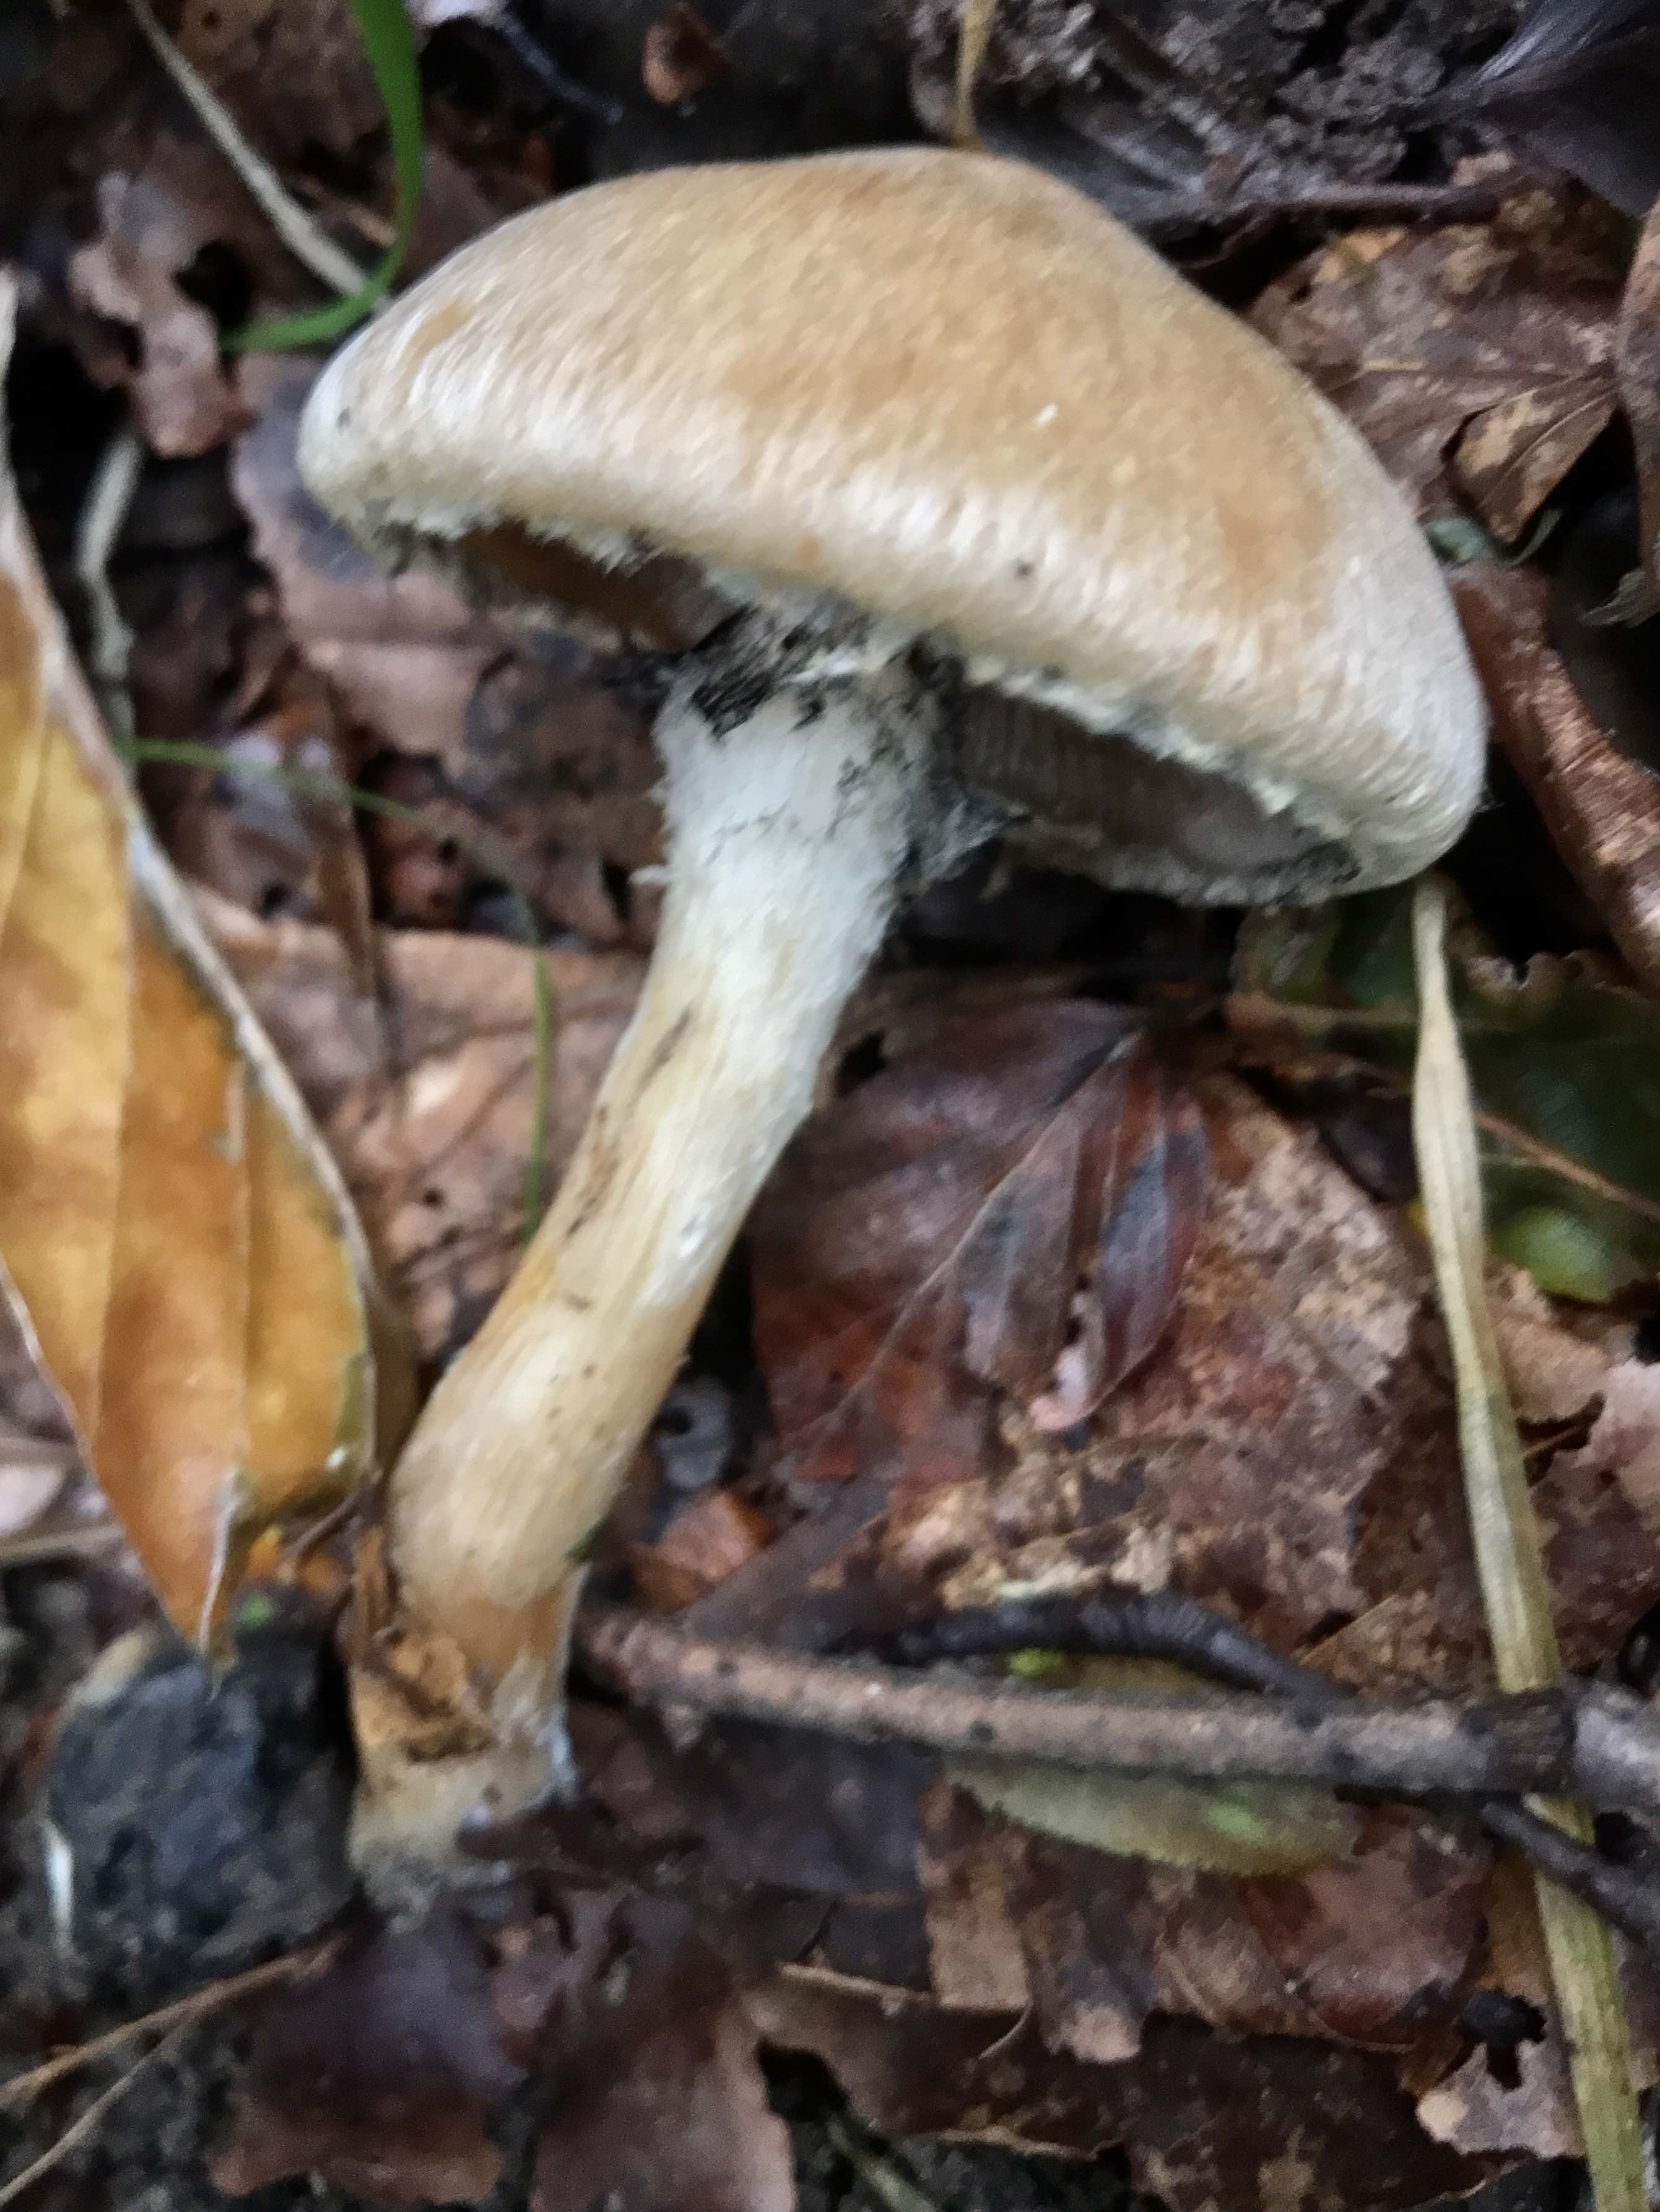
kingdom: Fungi
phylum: Basidiomycota
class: Agaricomycetes
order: Agaricales
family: Psathyrellaceae
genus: Lacrymaria
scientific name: Lacrymaria lacrymabunda
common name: grædende mørkhat
